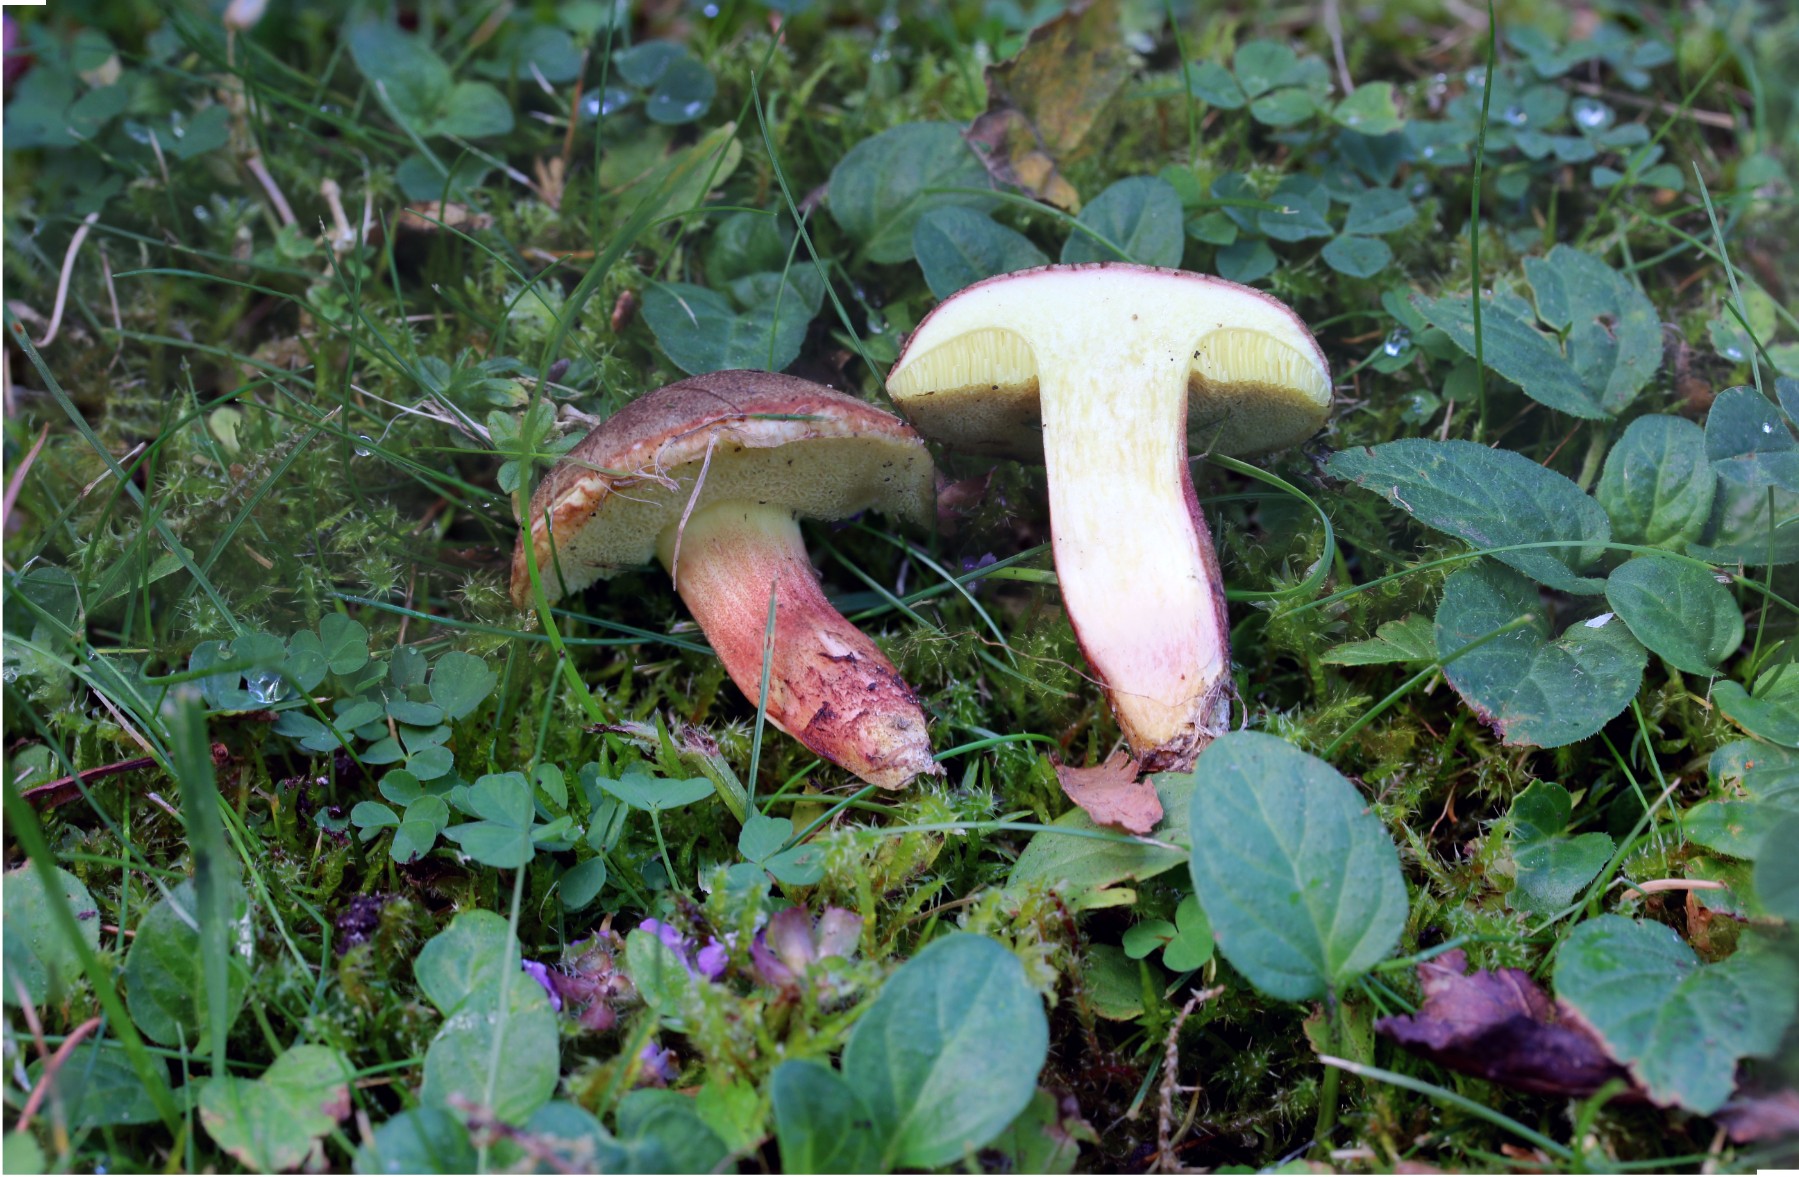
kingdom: Fungi
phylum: Basidiomycota
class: Agaricomycetes
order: Boletales
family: Boletaceae
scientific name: Boletaceae
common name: rørhatfamilien
